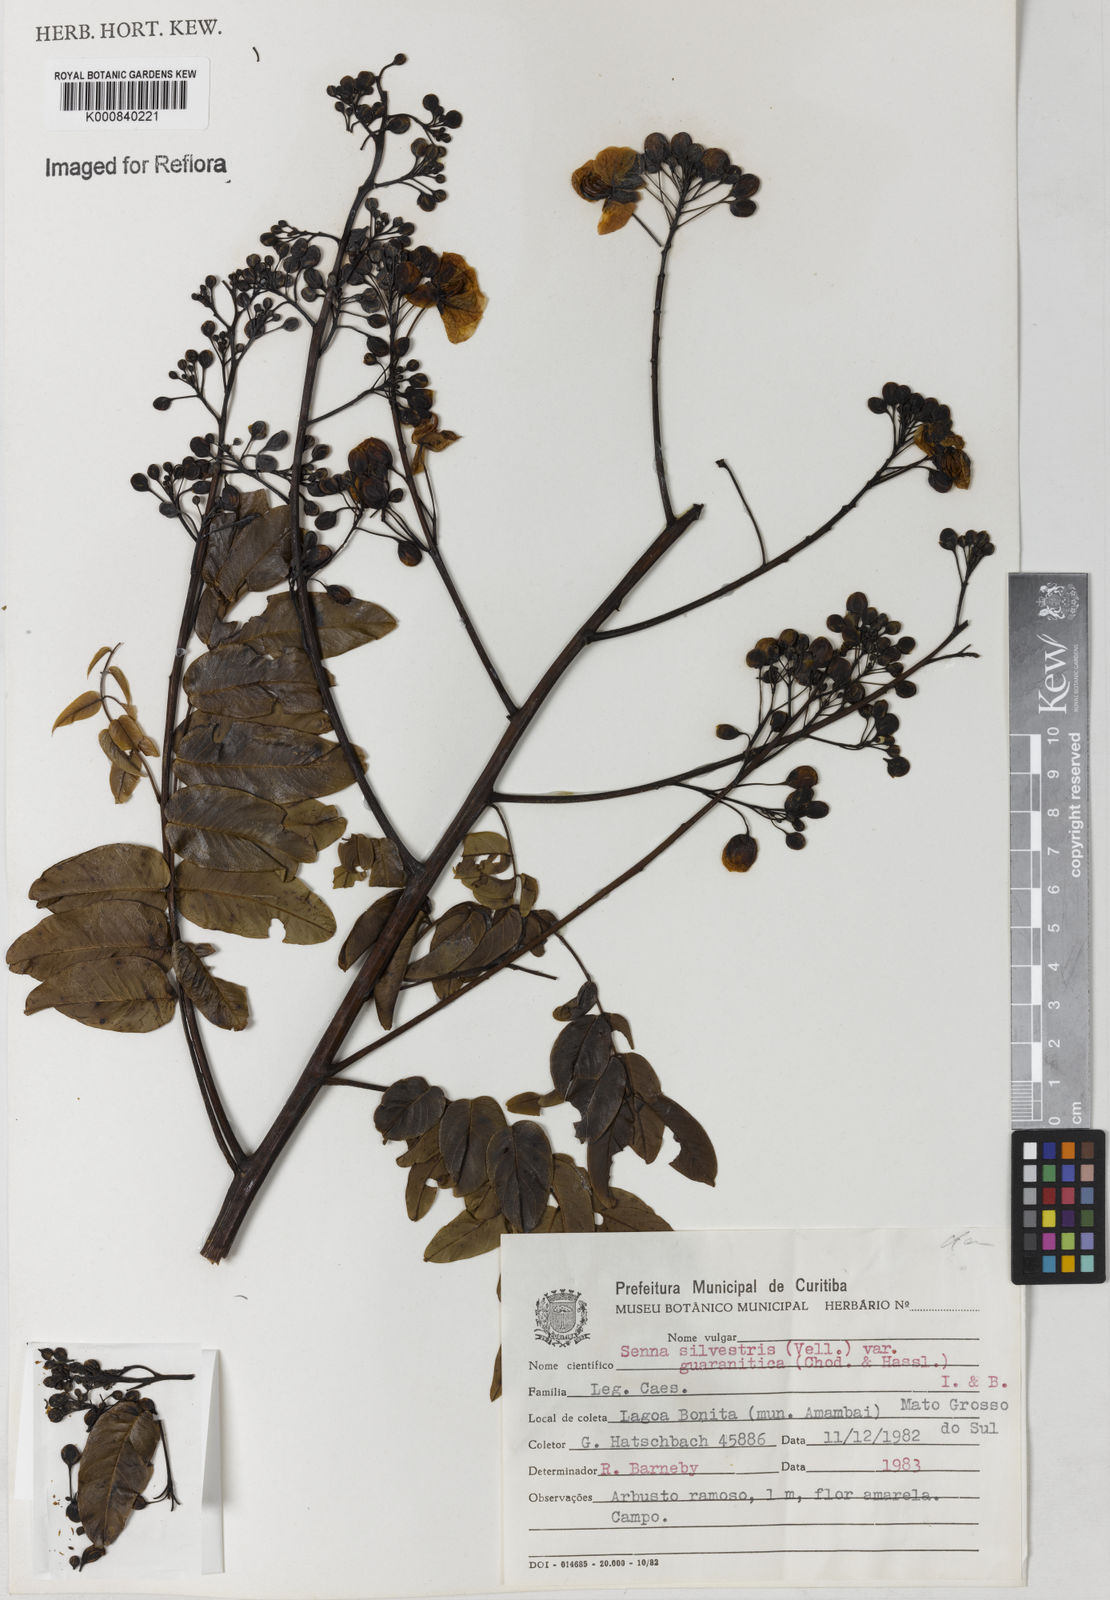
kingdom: Plantae
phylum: Tracheophyta
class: Magnoliopsida
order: Fabales
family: Fabaceae
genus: Senna
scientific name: Senna silvestris
